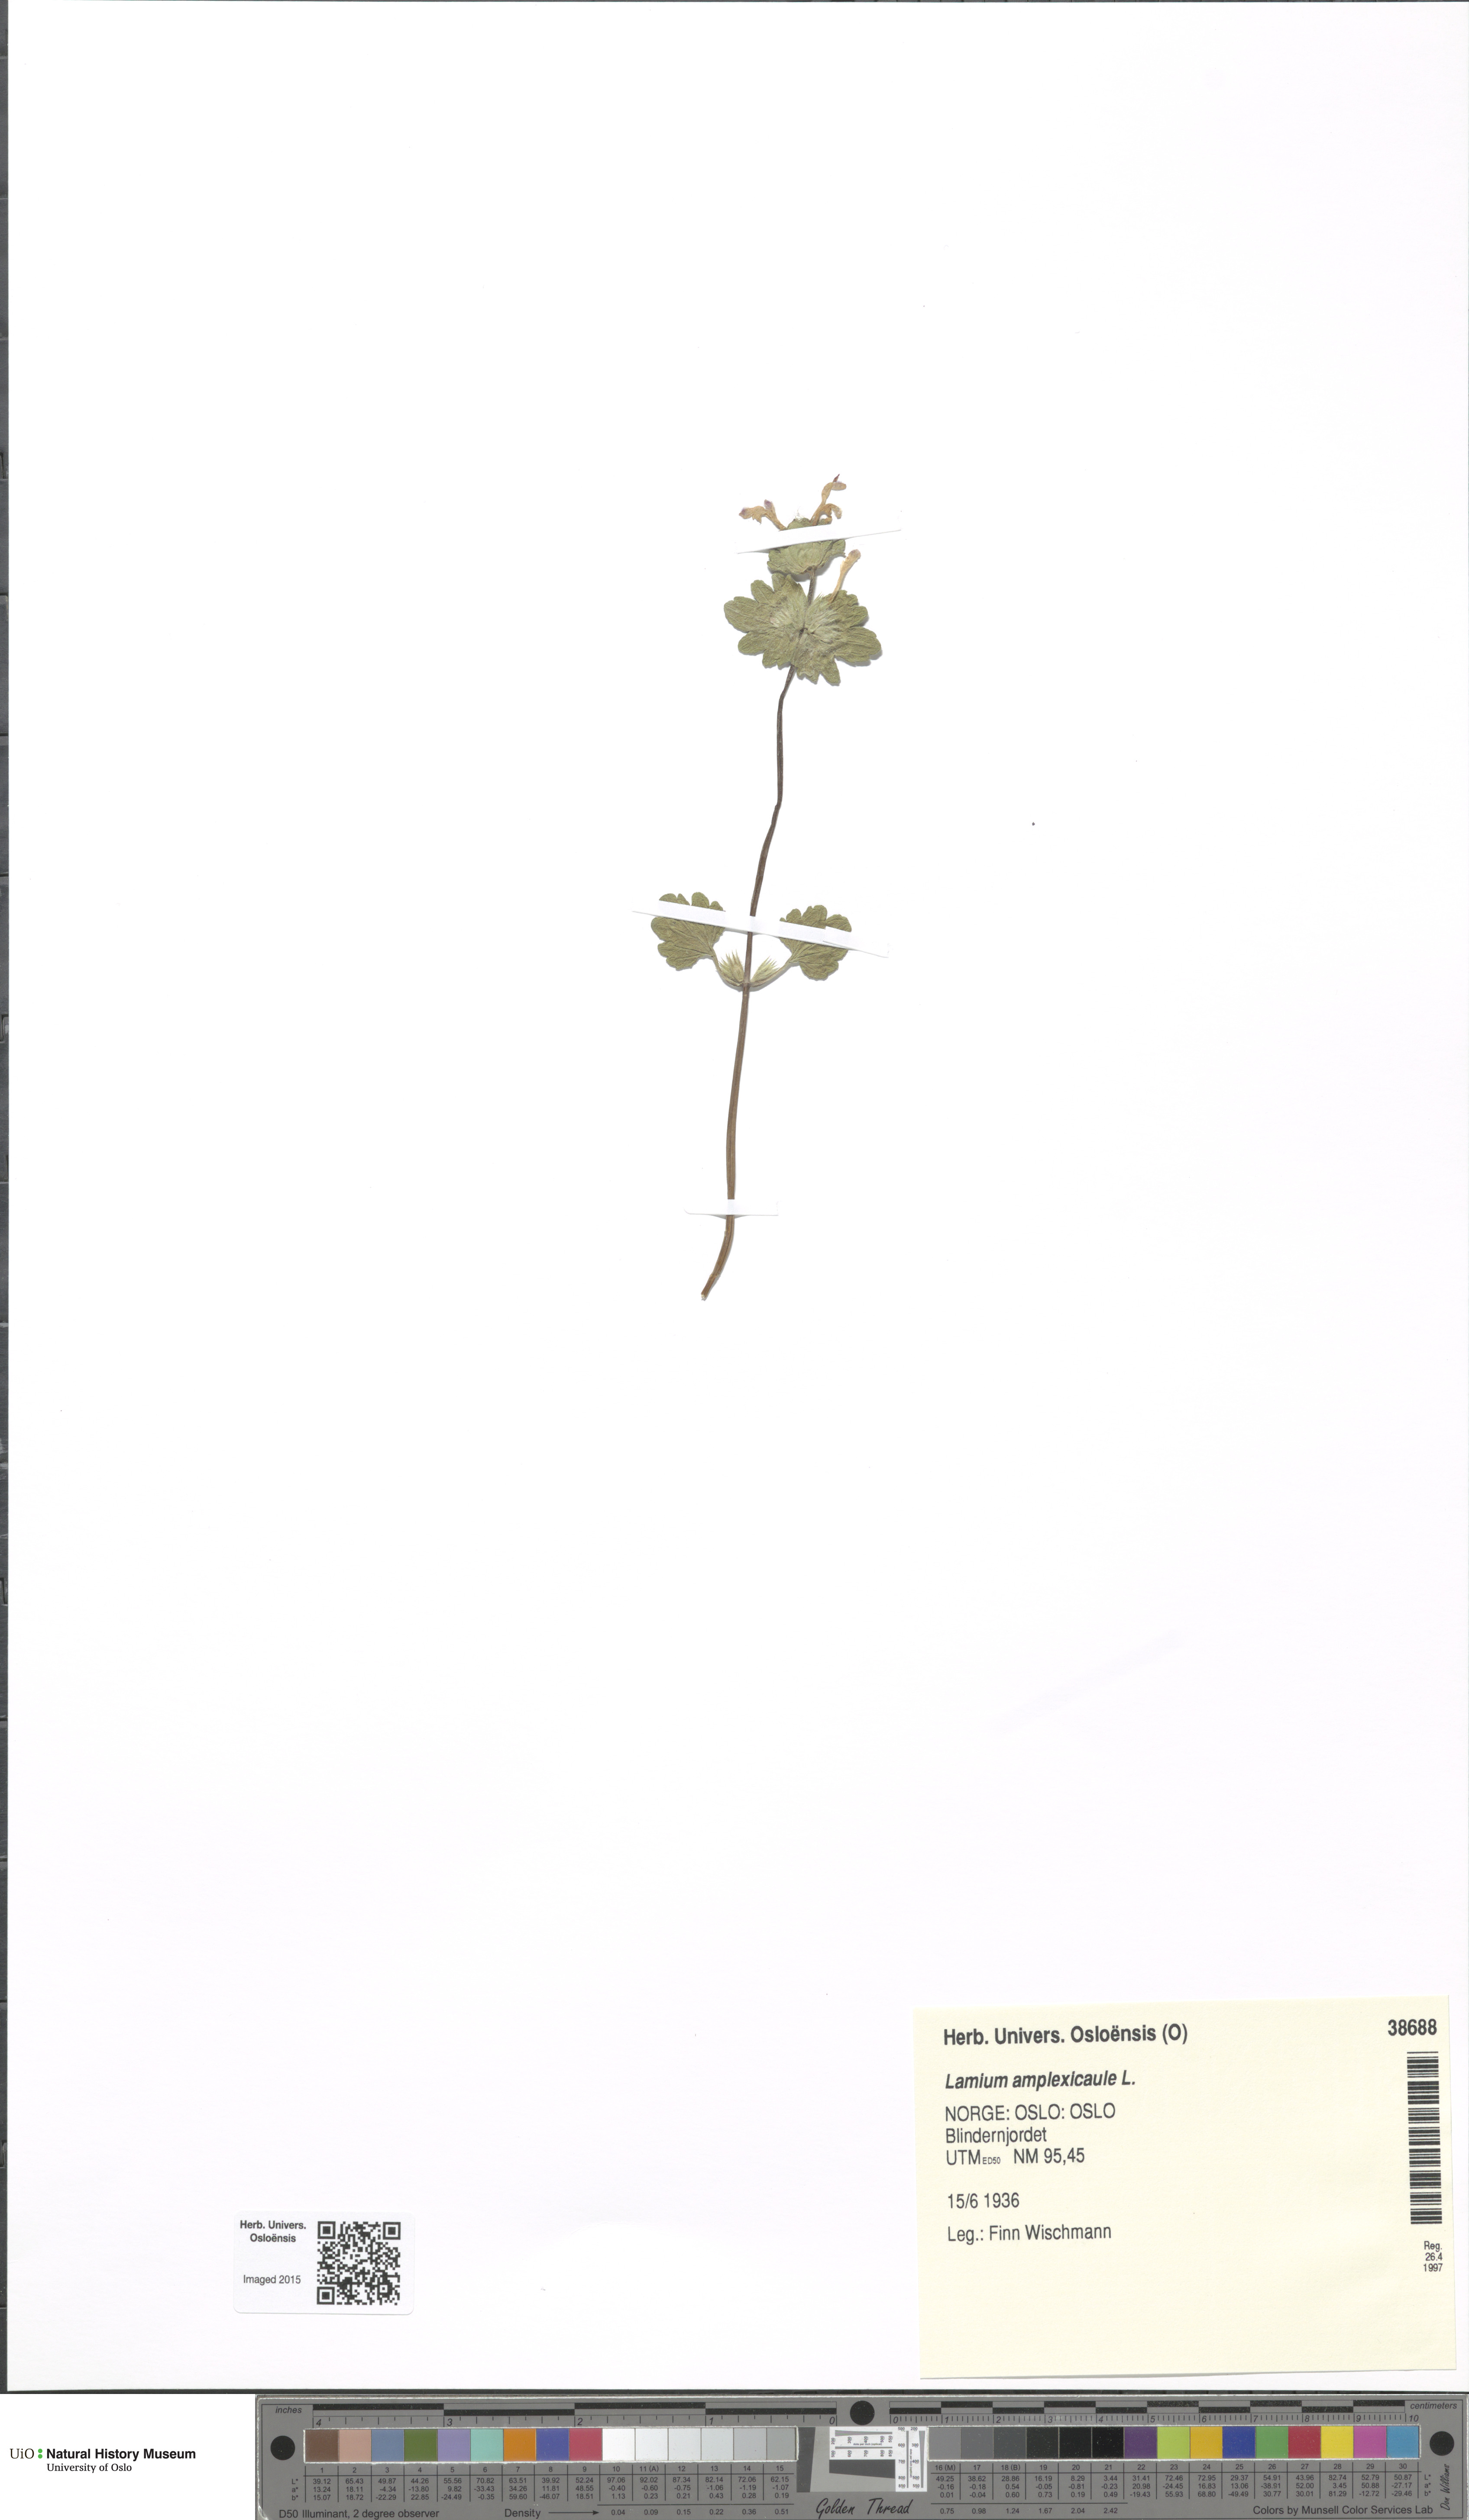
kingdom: Plantae
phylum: Tracheophyta
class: Magnoliopsida
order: Lamiales
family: Lamiaceae
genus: Lamium
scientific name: Lamium amplexicaule
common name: Henbit dead-nettle
